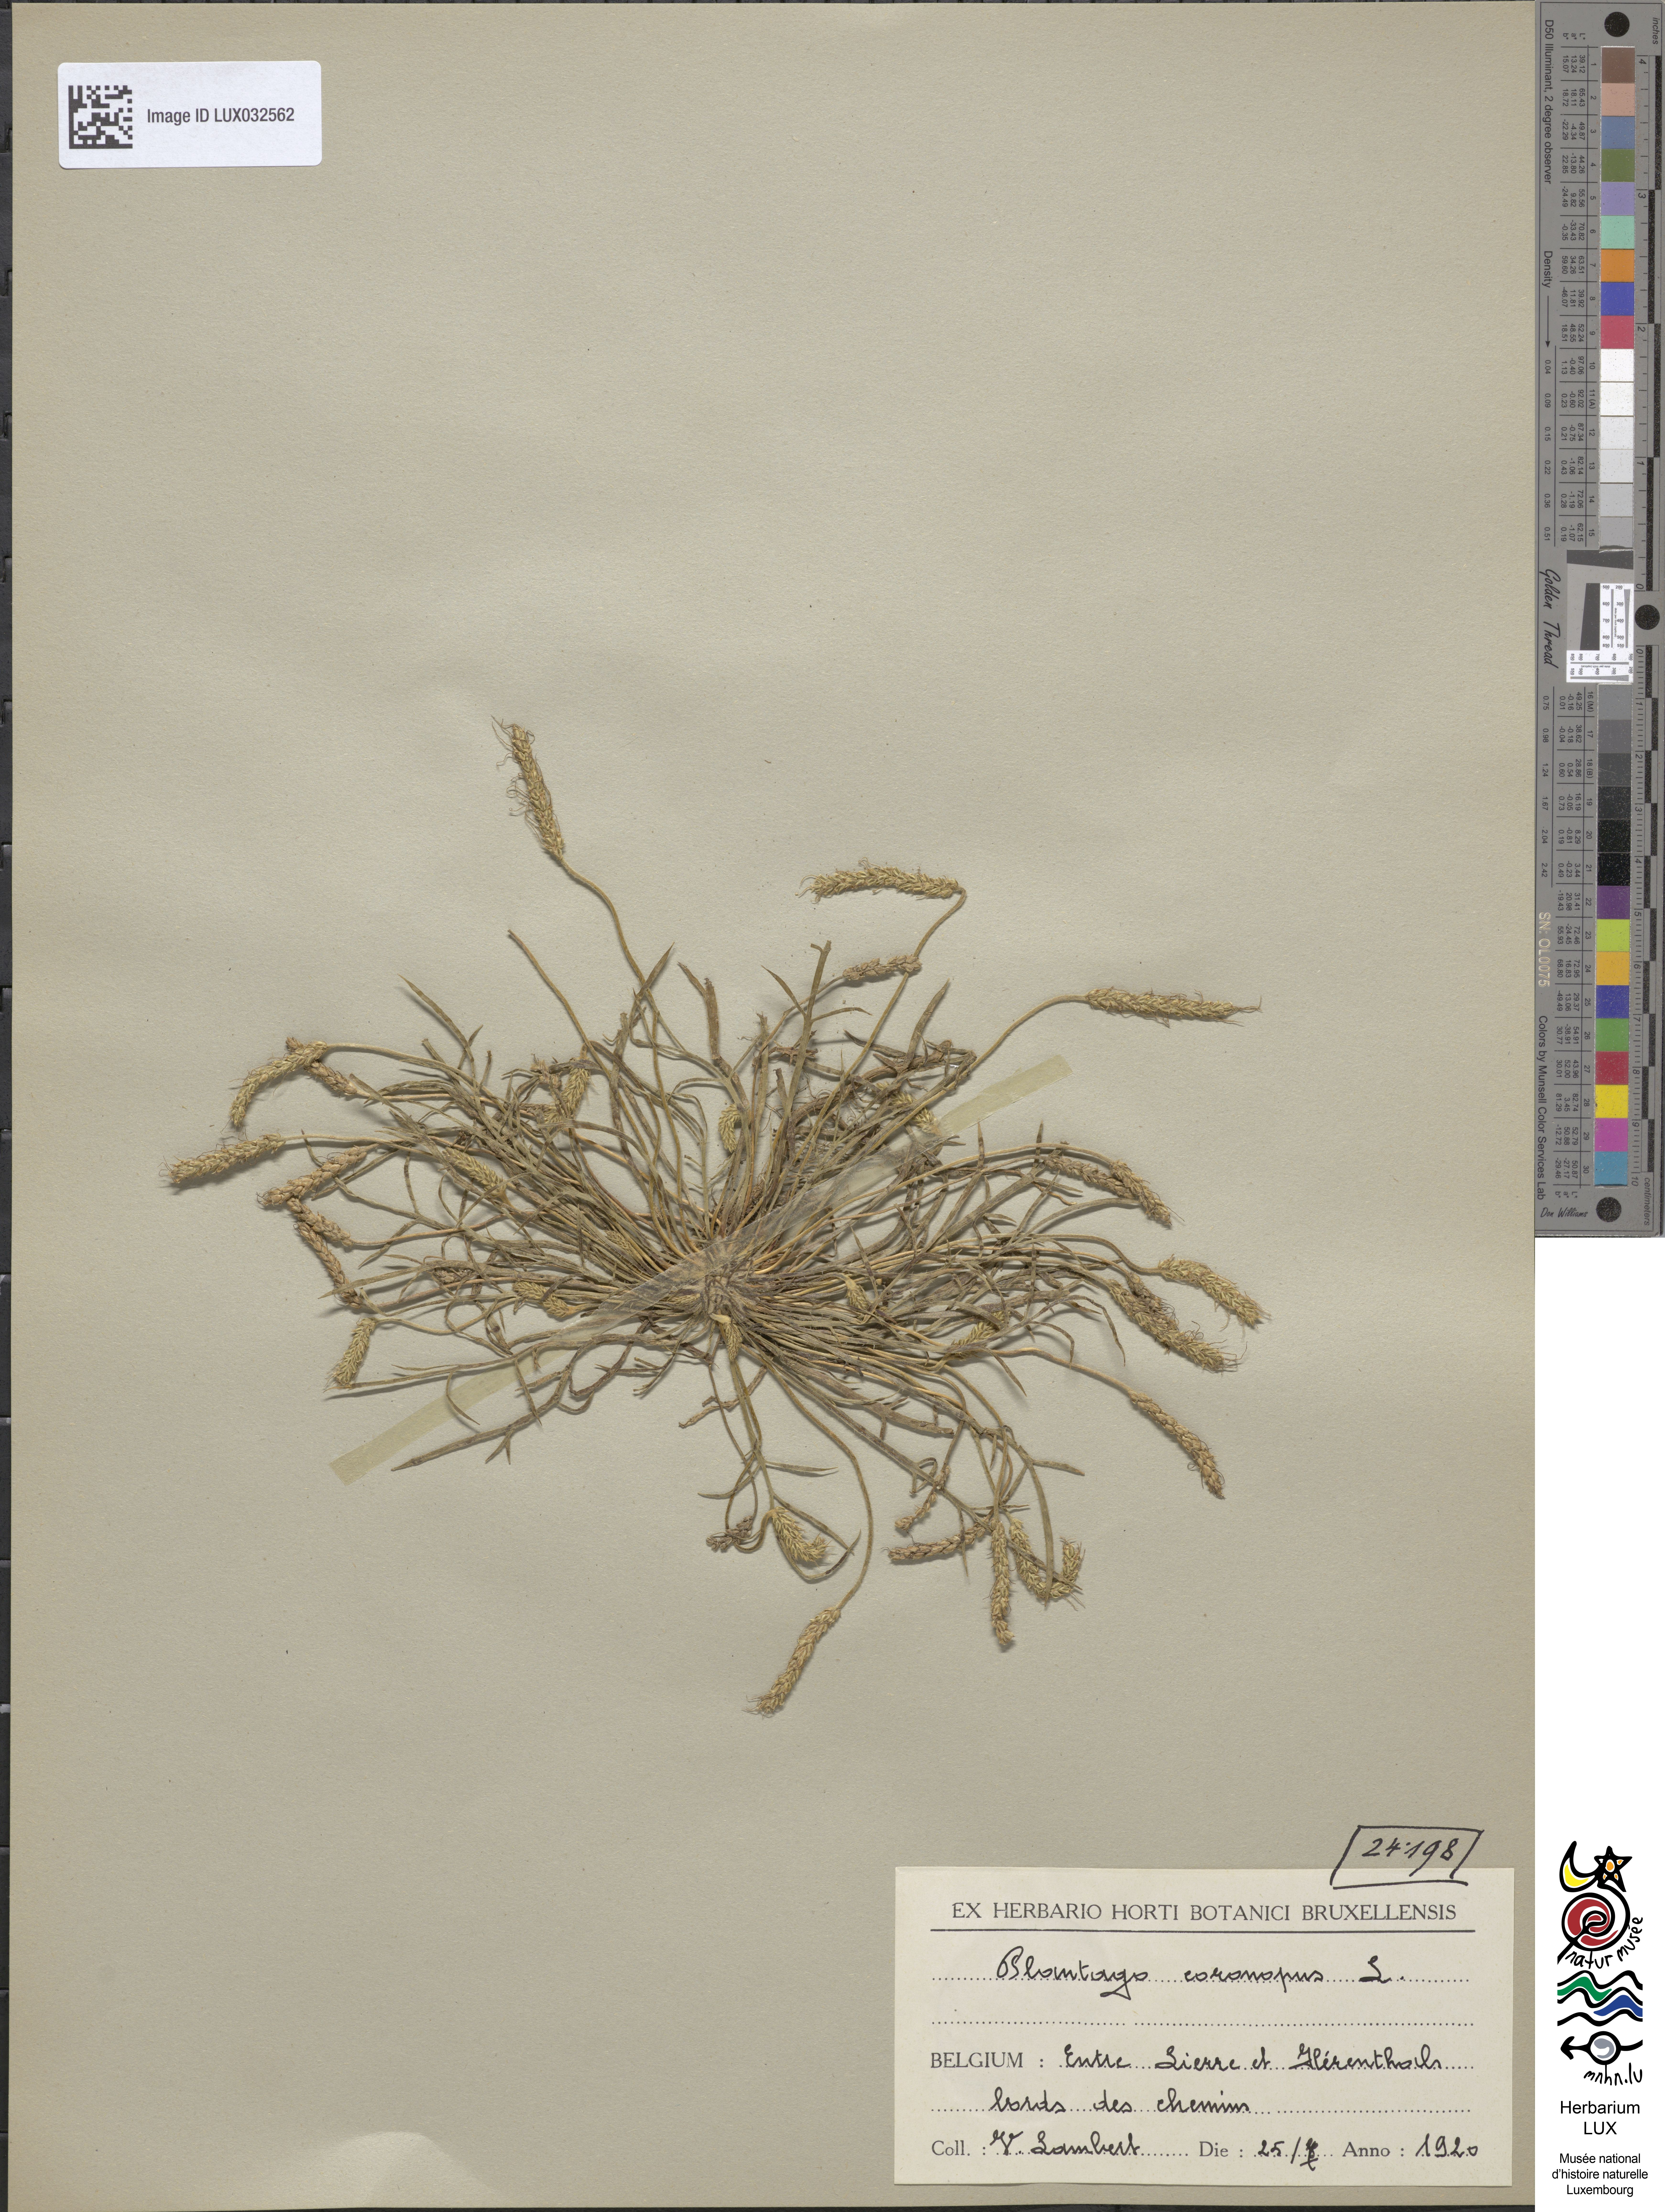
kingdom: Plantae
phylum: Tracheophyta
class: Magnoliopsida
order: Lamiales
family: Plantaginaceae
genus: Plantago
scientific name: Plantago coronopus
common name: Buck's-horn plantain
